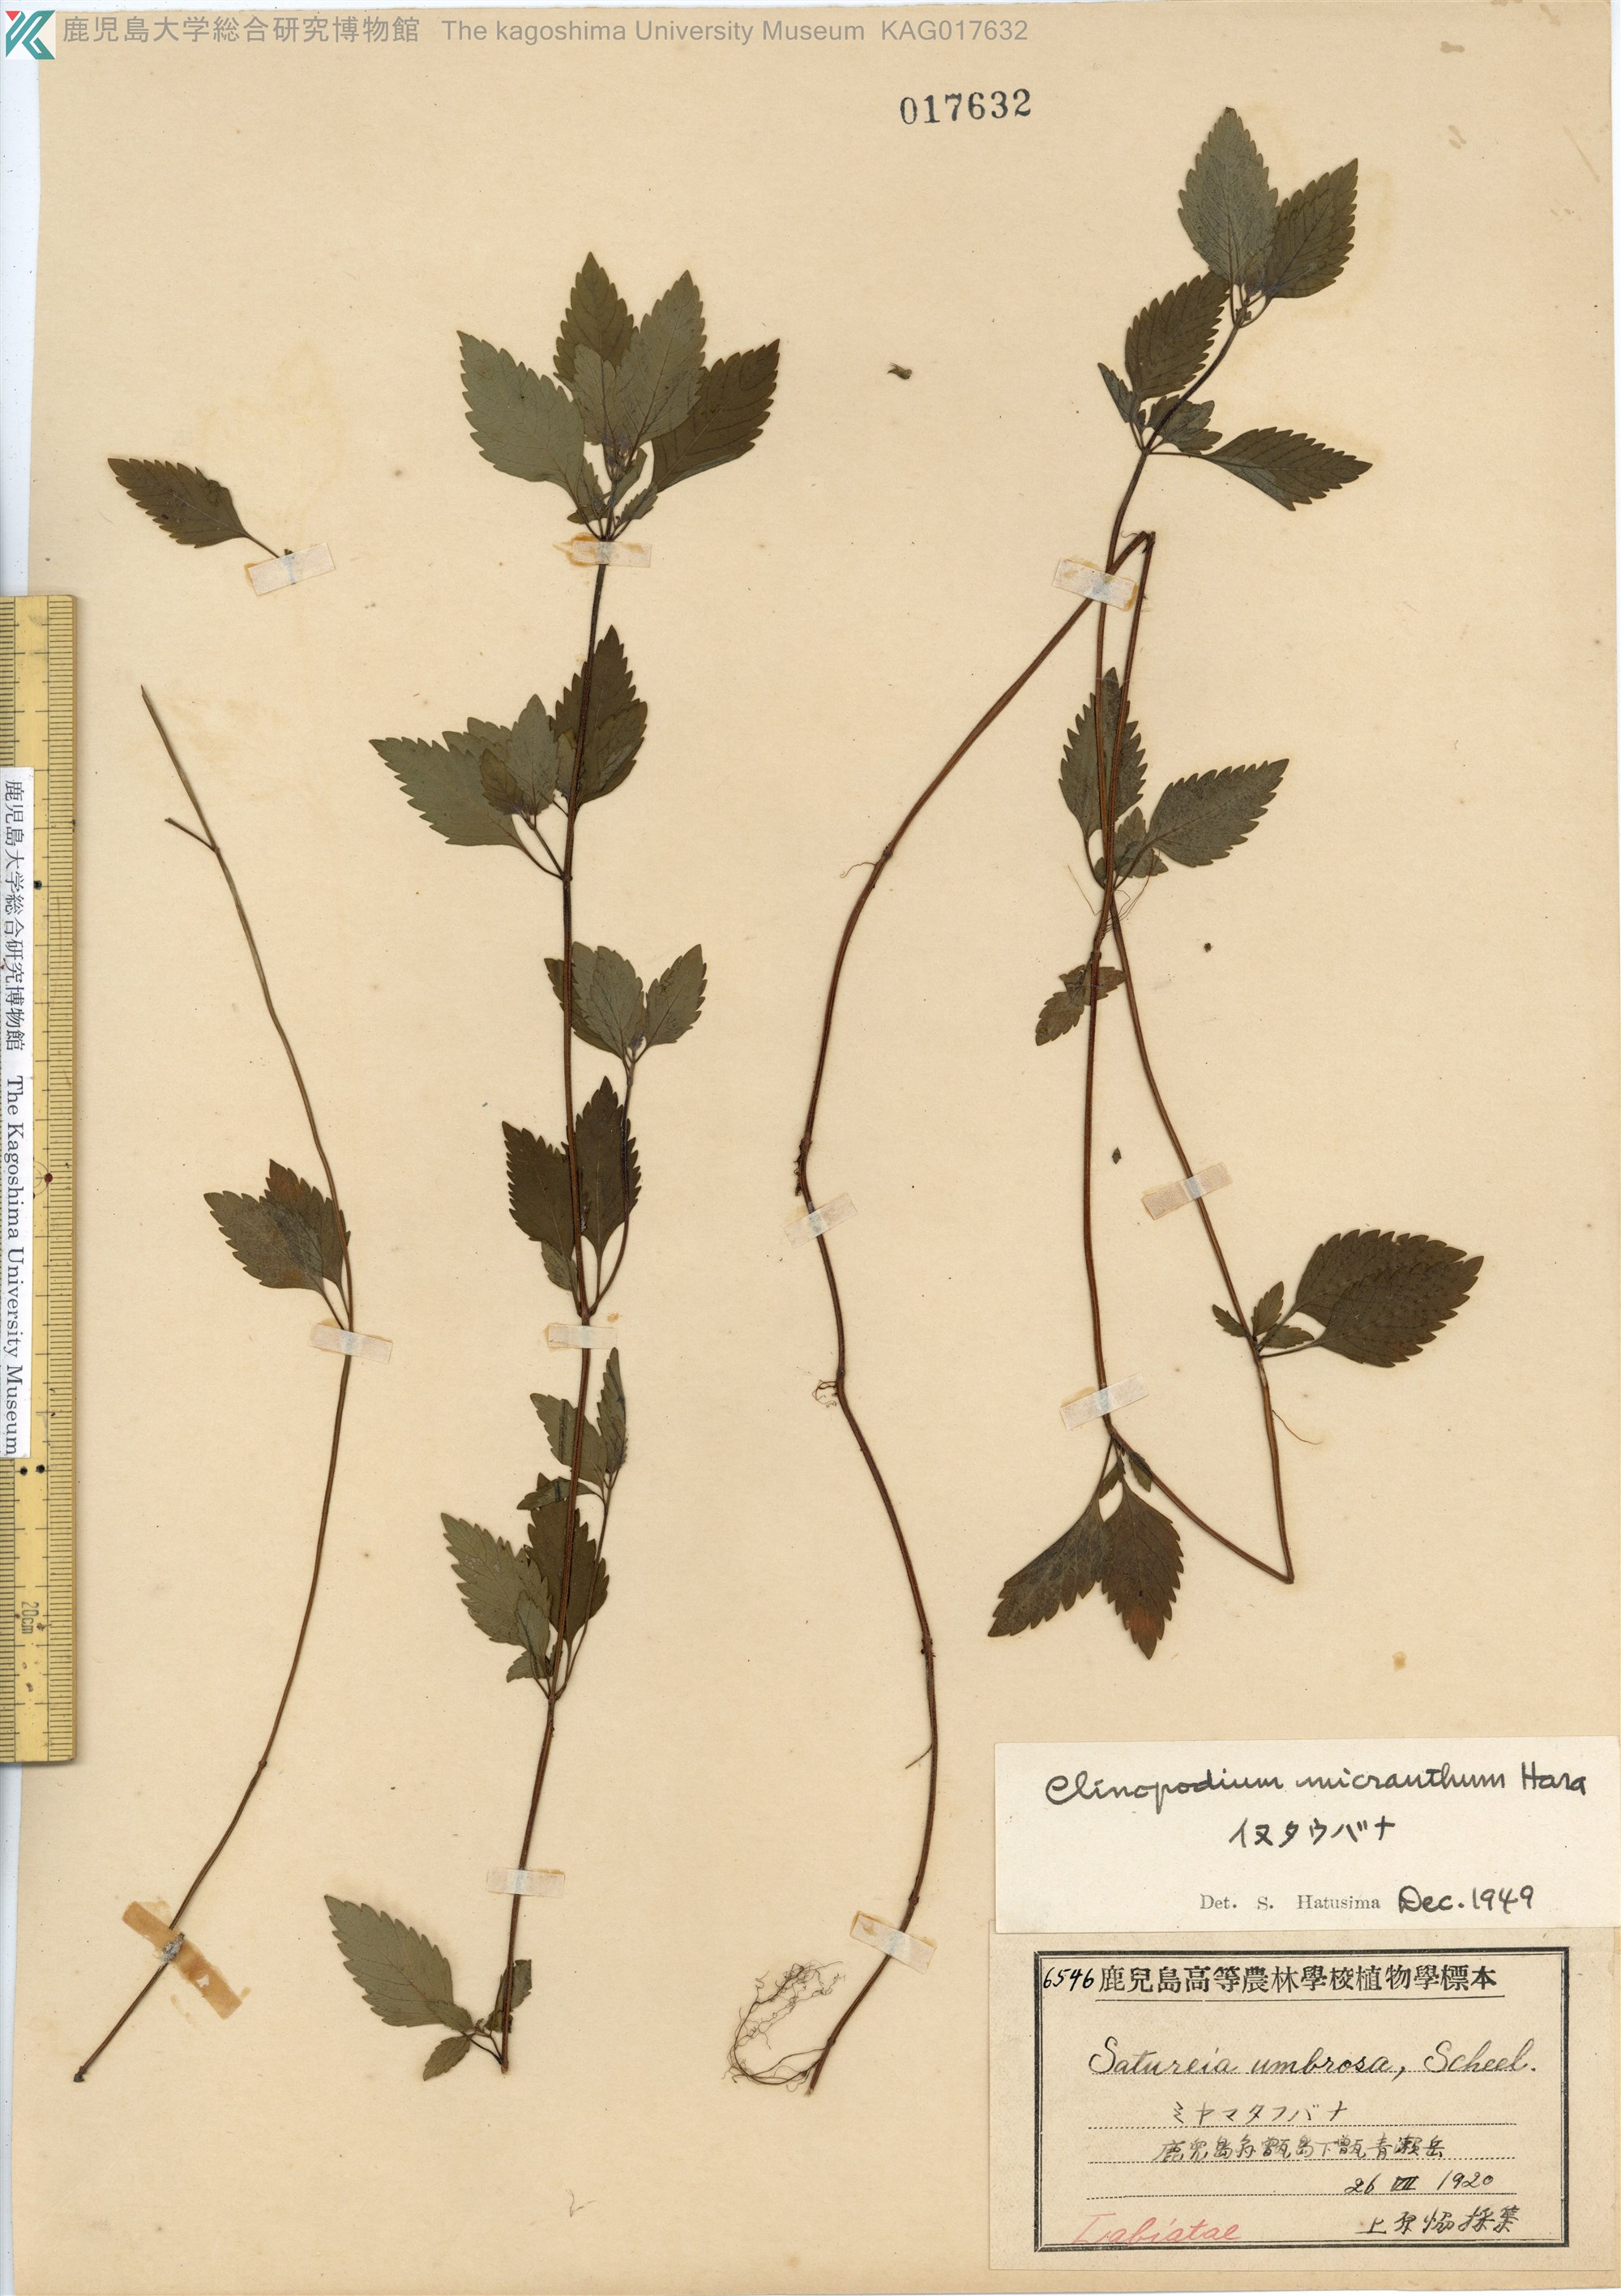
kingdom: Plantae
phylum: Tracheophyta
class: Magnoliopsida
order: Lamiales
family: Lamiaceae
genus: Clinopodium
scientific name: Clinopodium micranthum
